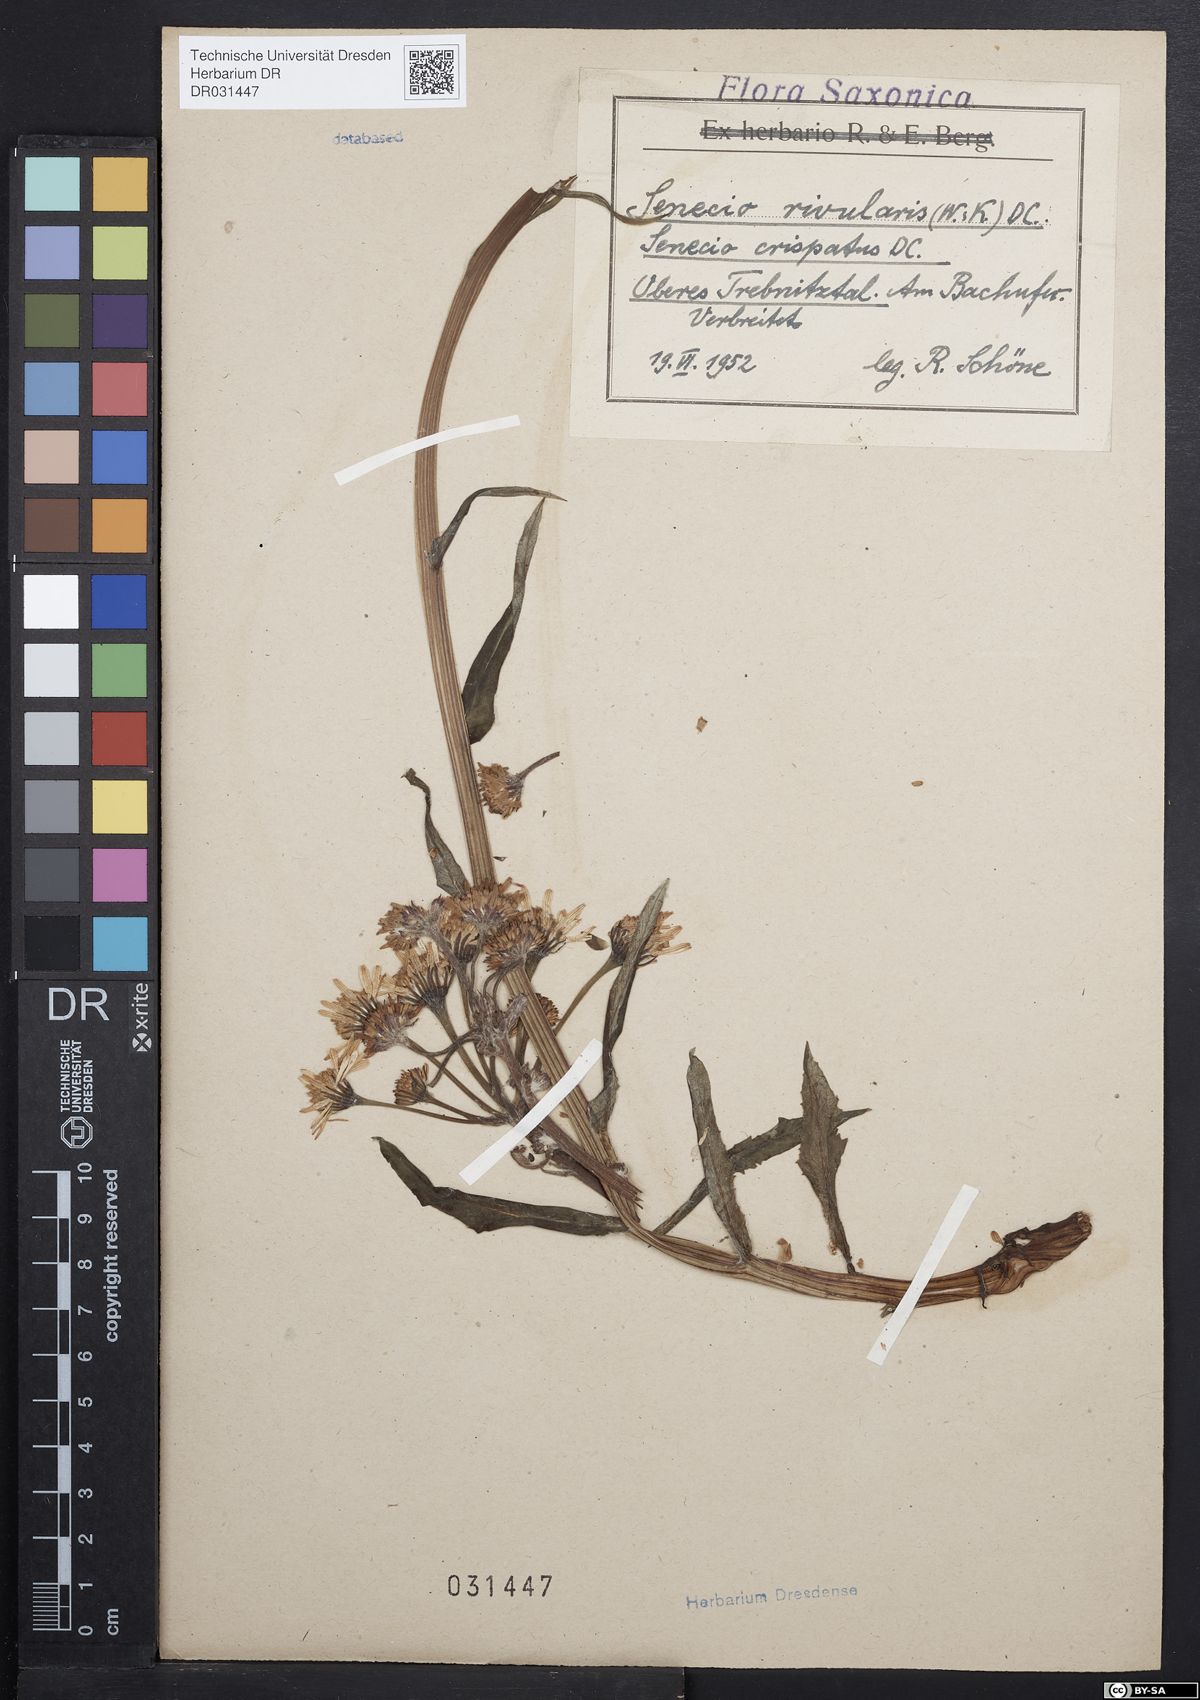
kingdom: Plantae
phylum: Tracheophyta
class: Magnoliopsida
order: Asterales
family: Asteraceae
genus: Tephroseris
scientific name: Tephroseris crispa
